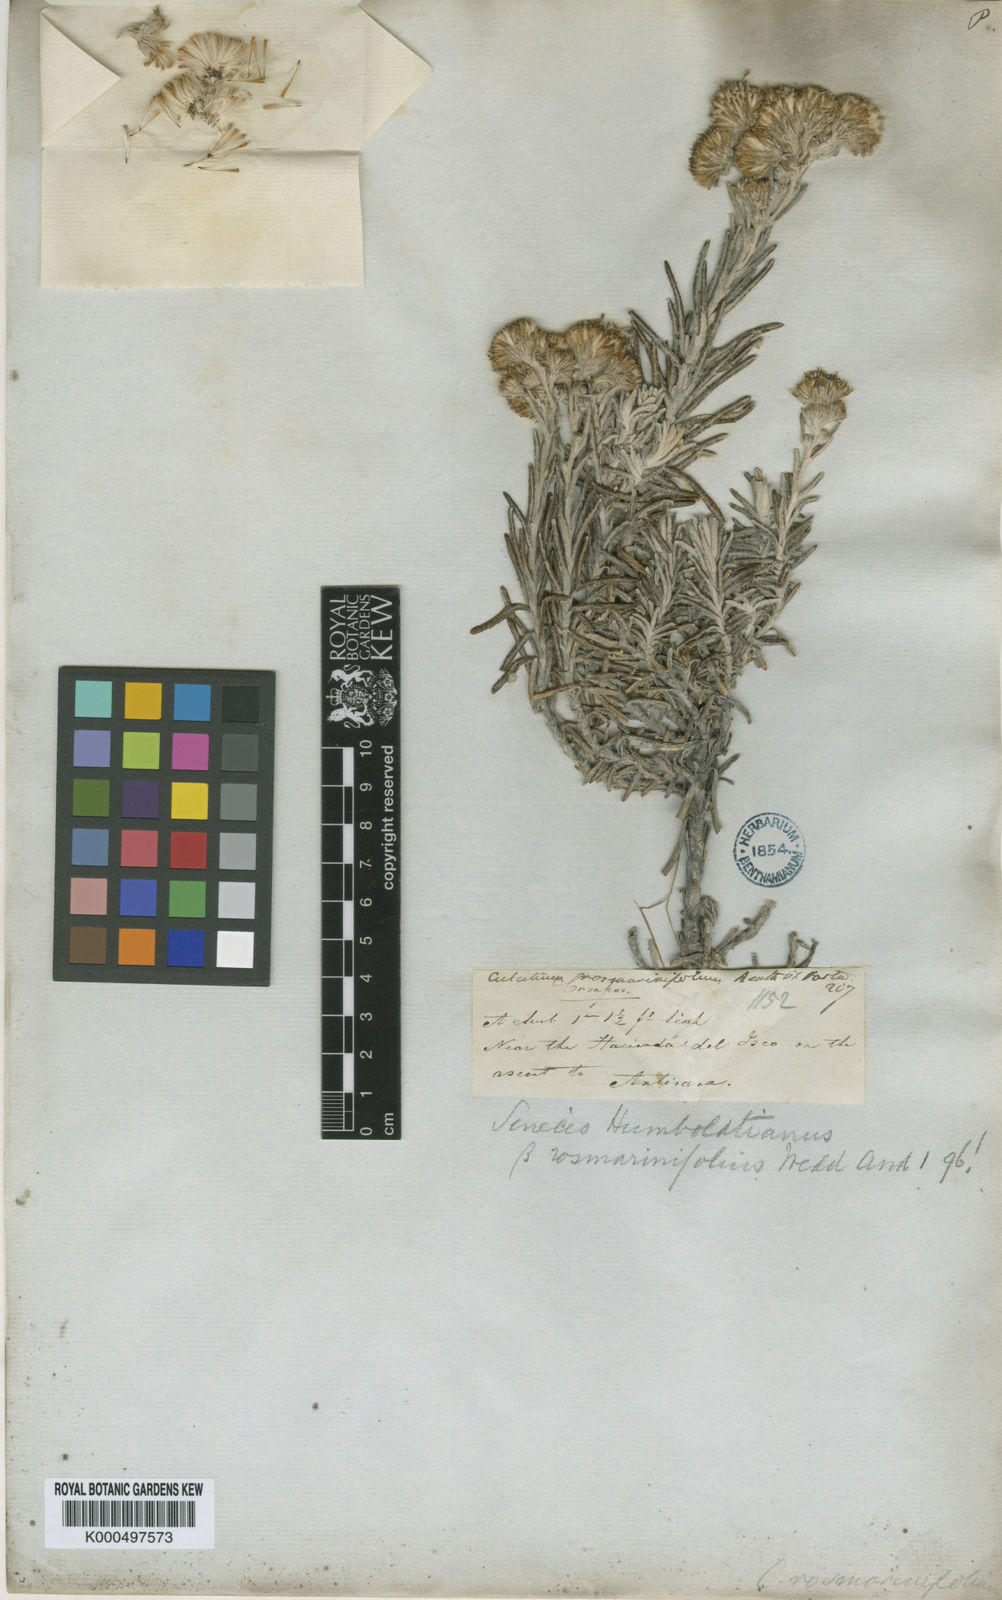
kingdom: Plantae
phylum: Tracheophyta
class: Magnoliopsida
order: Asterales
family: Asteraceae
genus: Monticalia
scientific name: Monticalia angustifolia
